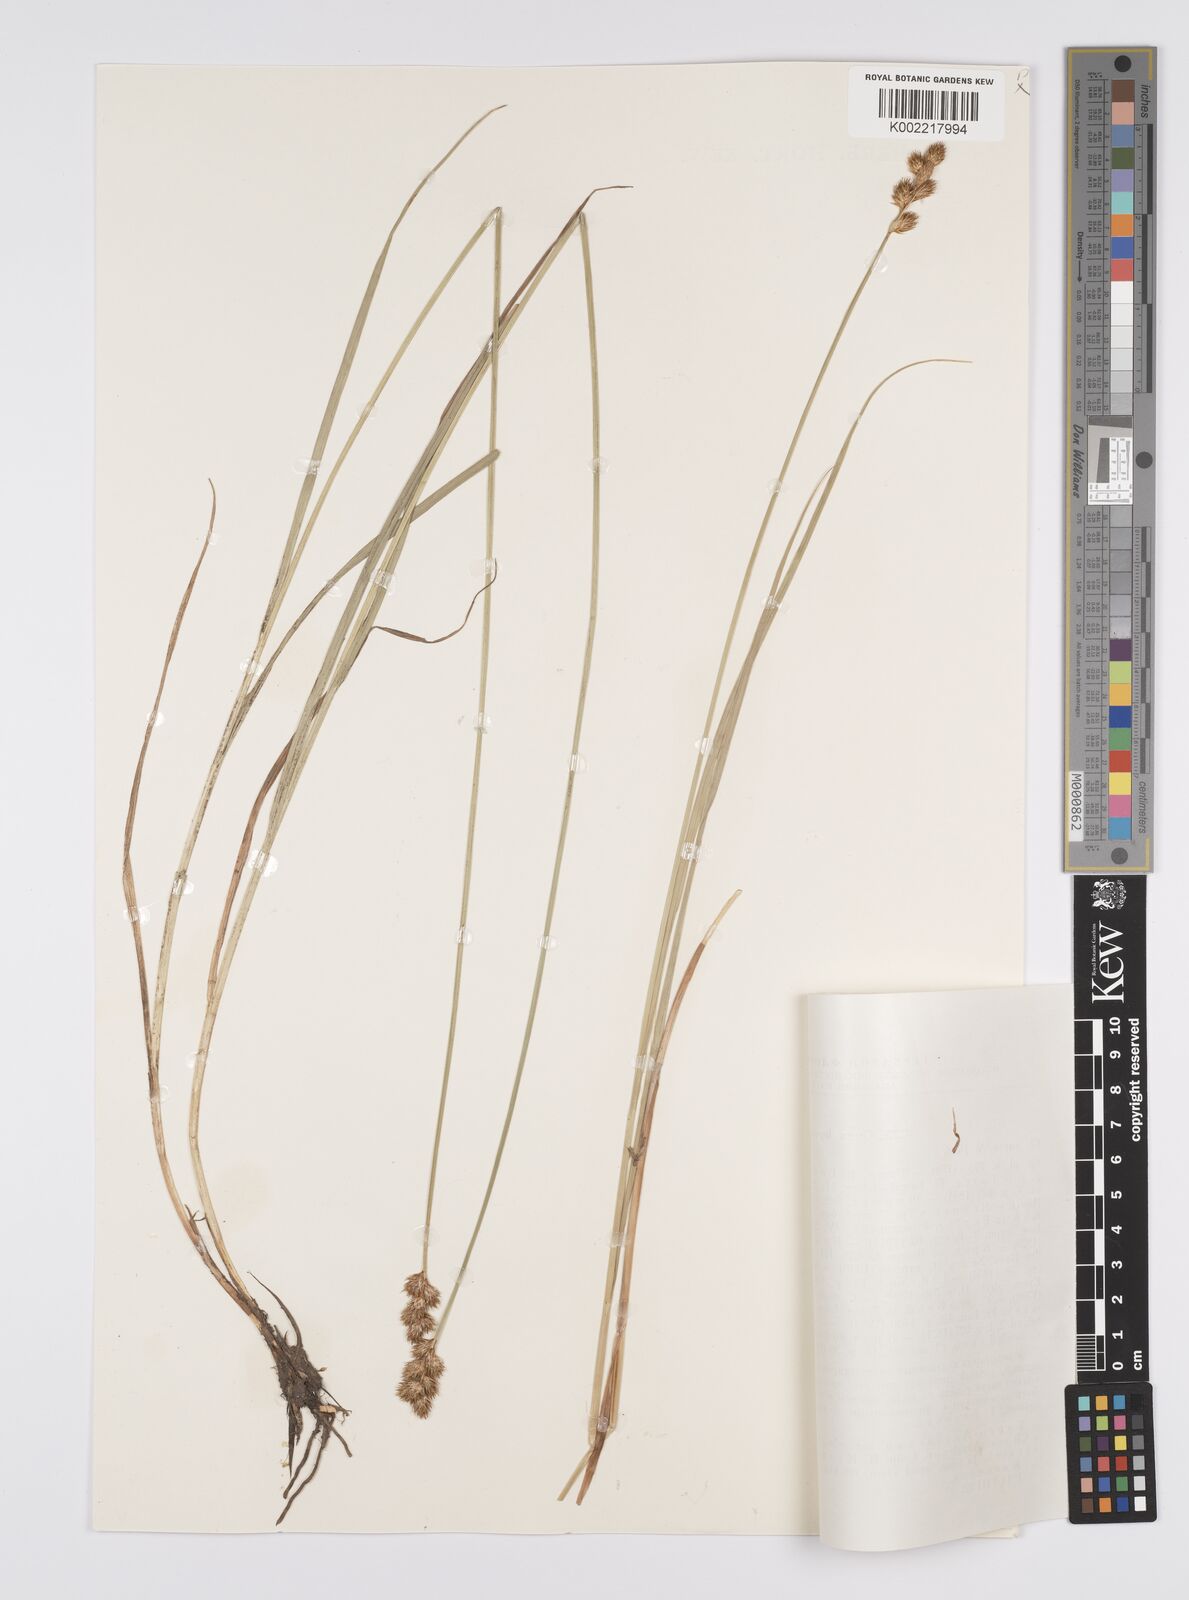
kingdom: Plantae
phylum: Tracheophyta
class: Liliopsida
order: Poales
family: Cyperaceae
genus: Carex
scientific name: Carex leporina
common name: Oval sedge
